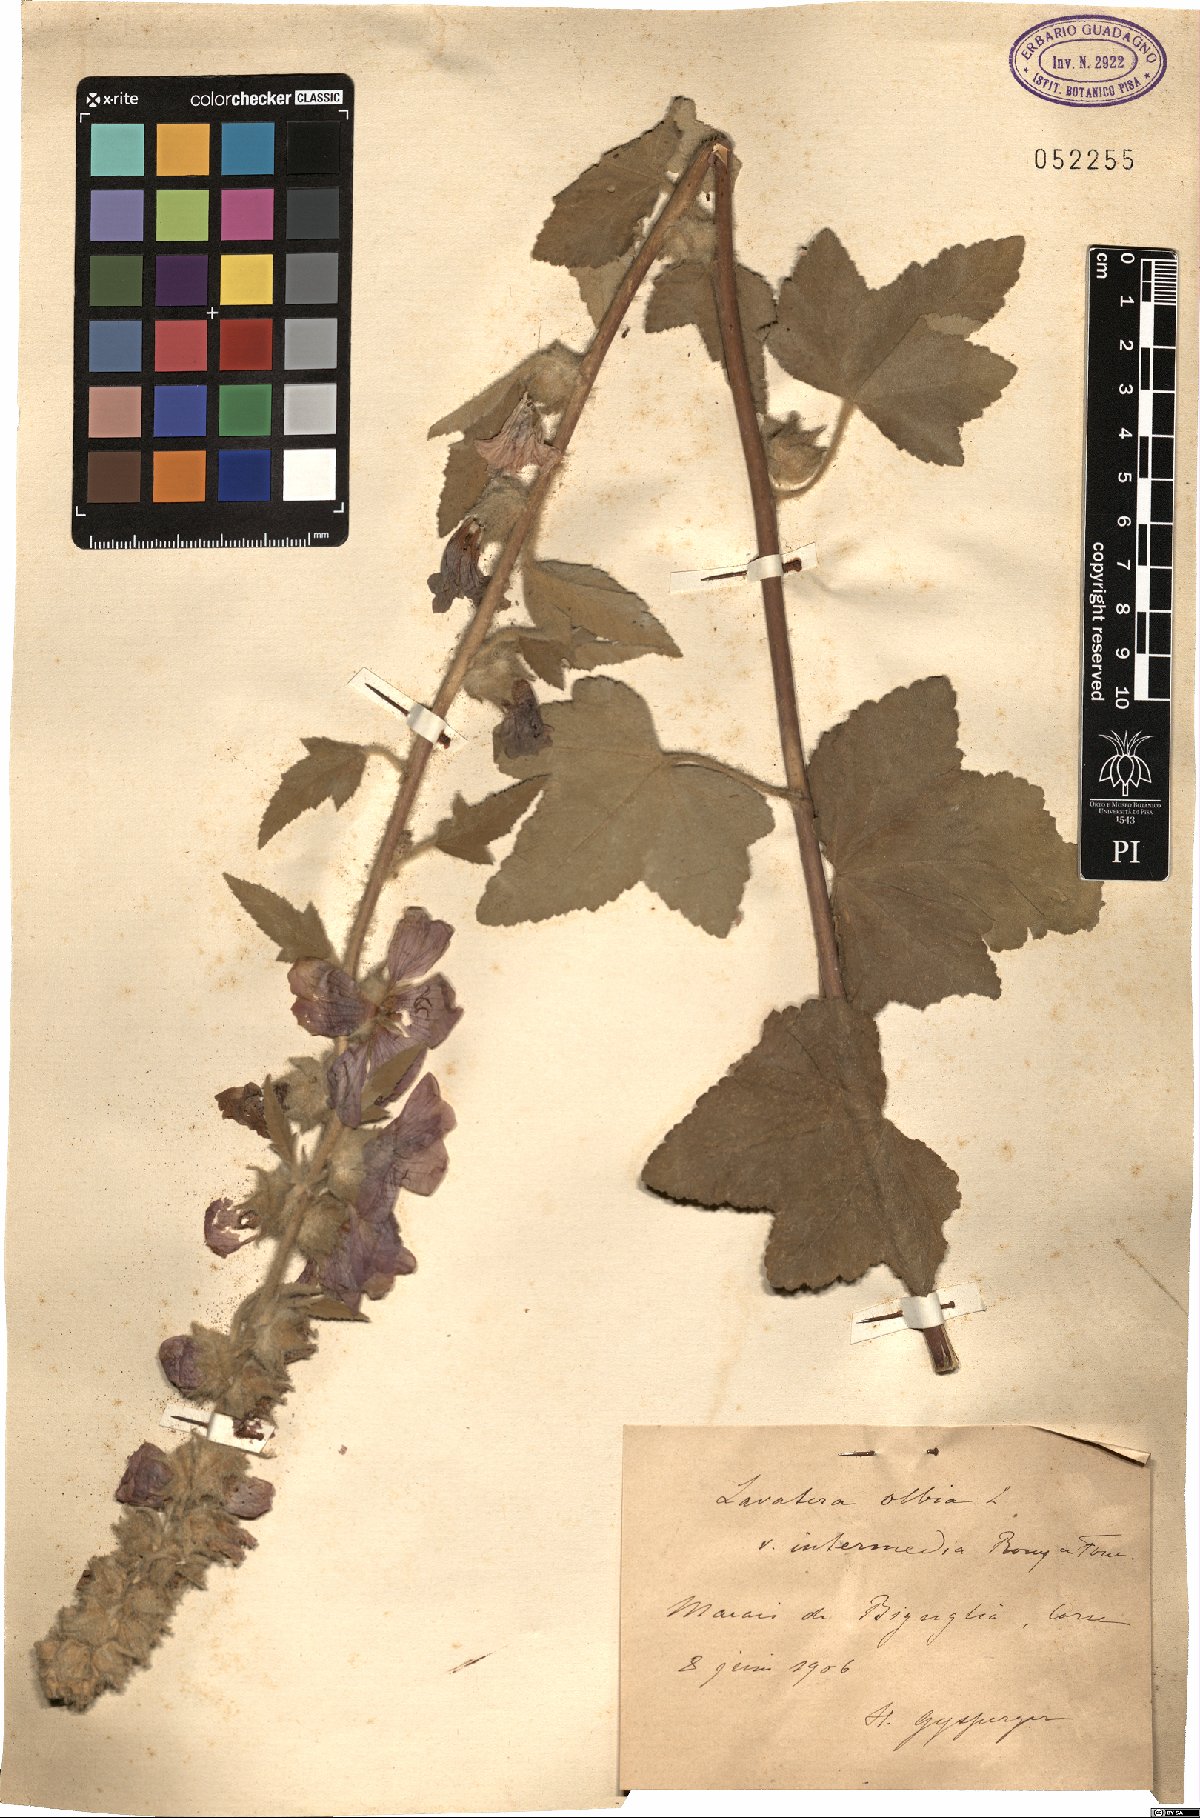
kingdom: Plantae
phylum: Tracheophyta
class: Magnoliopsida
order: Malvales
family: Malvaceae
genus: Malva
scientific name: Malva olbia
